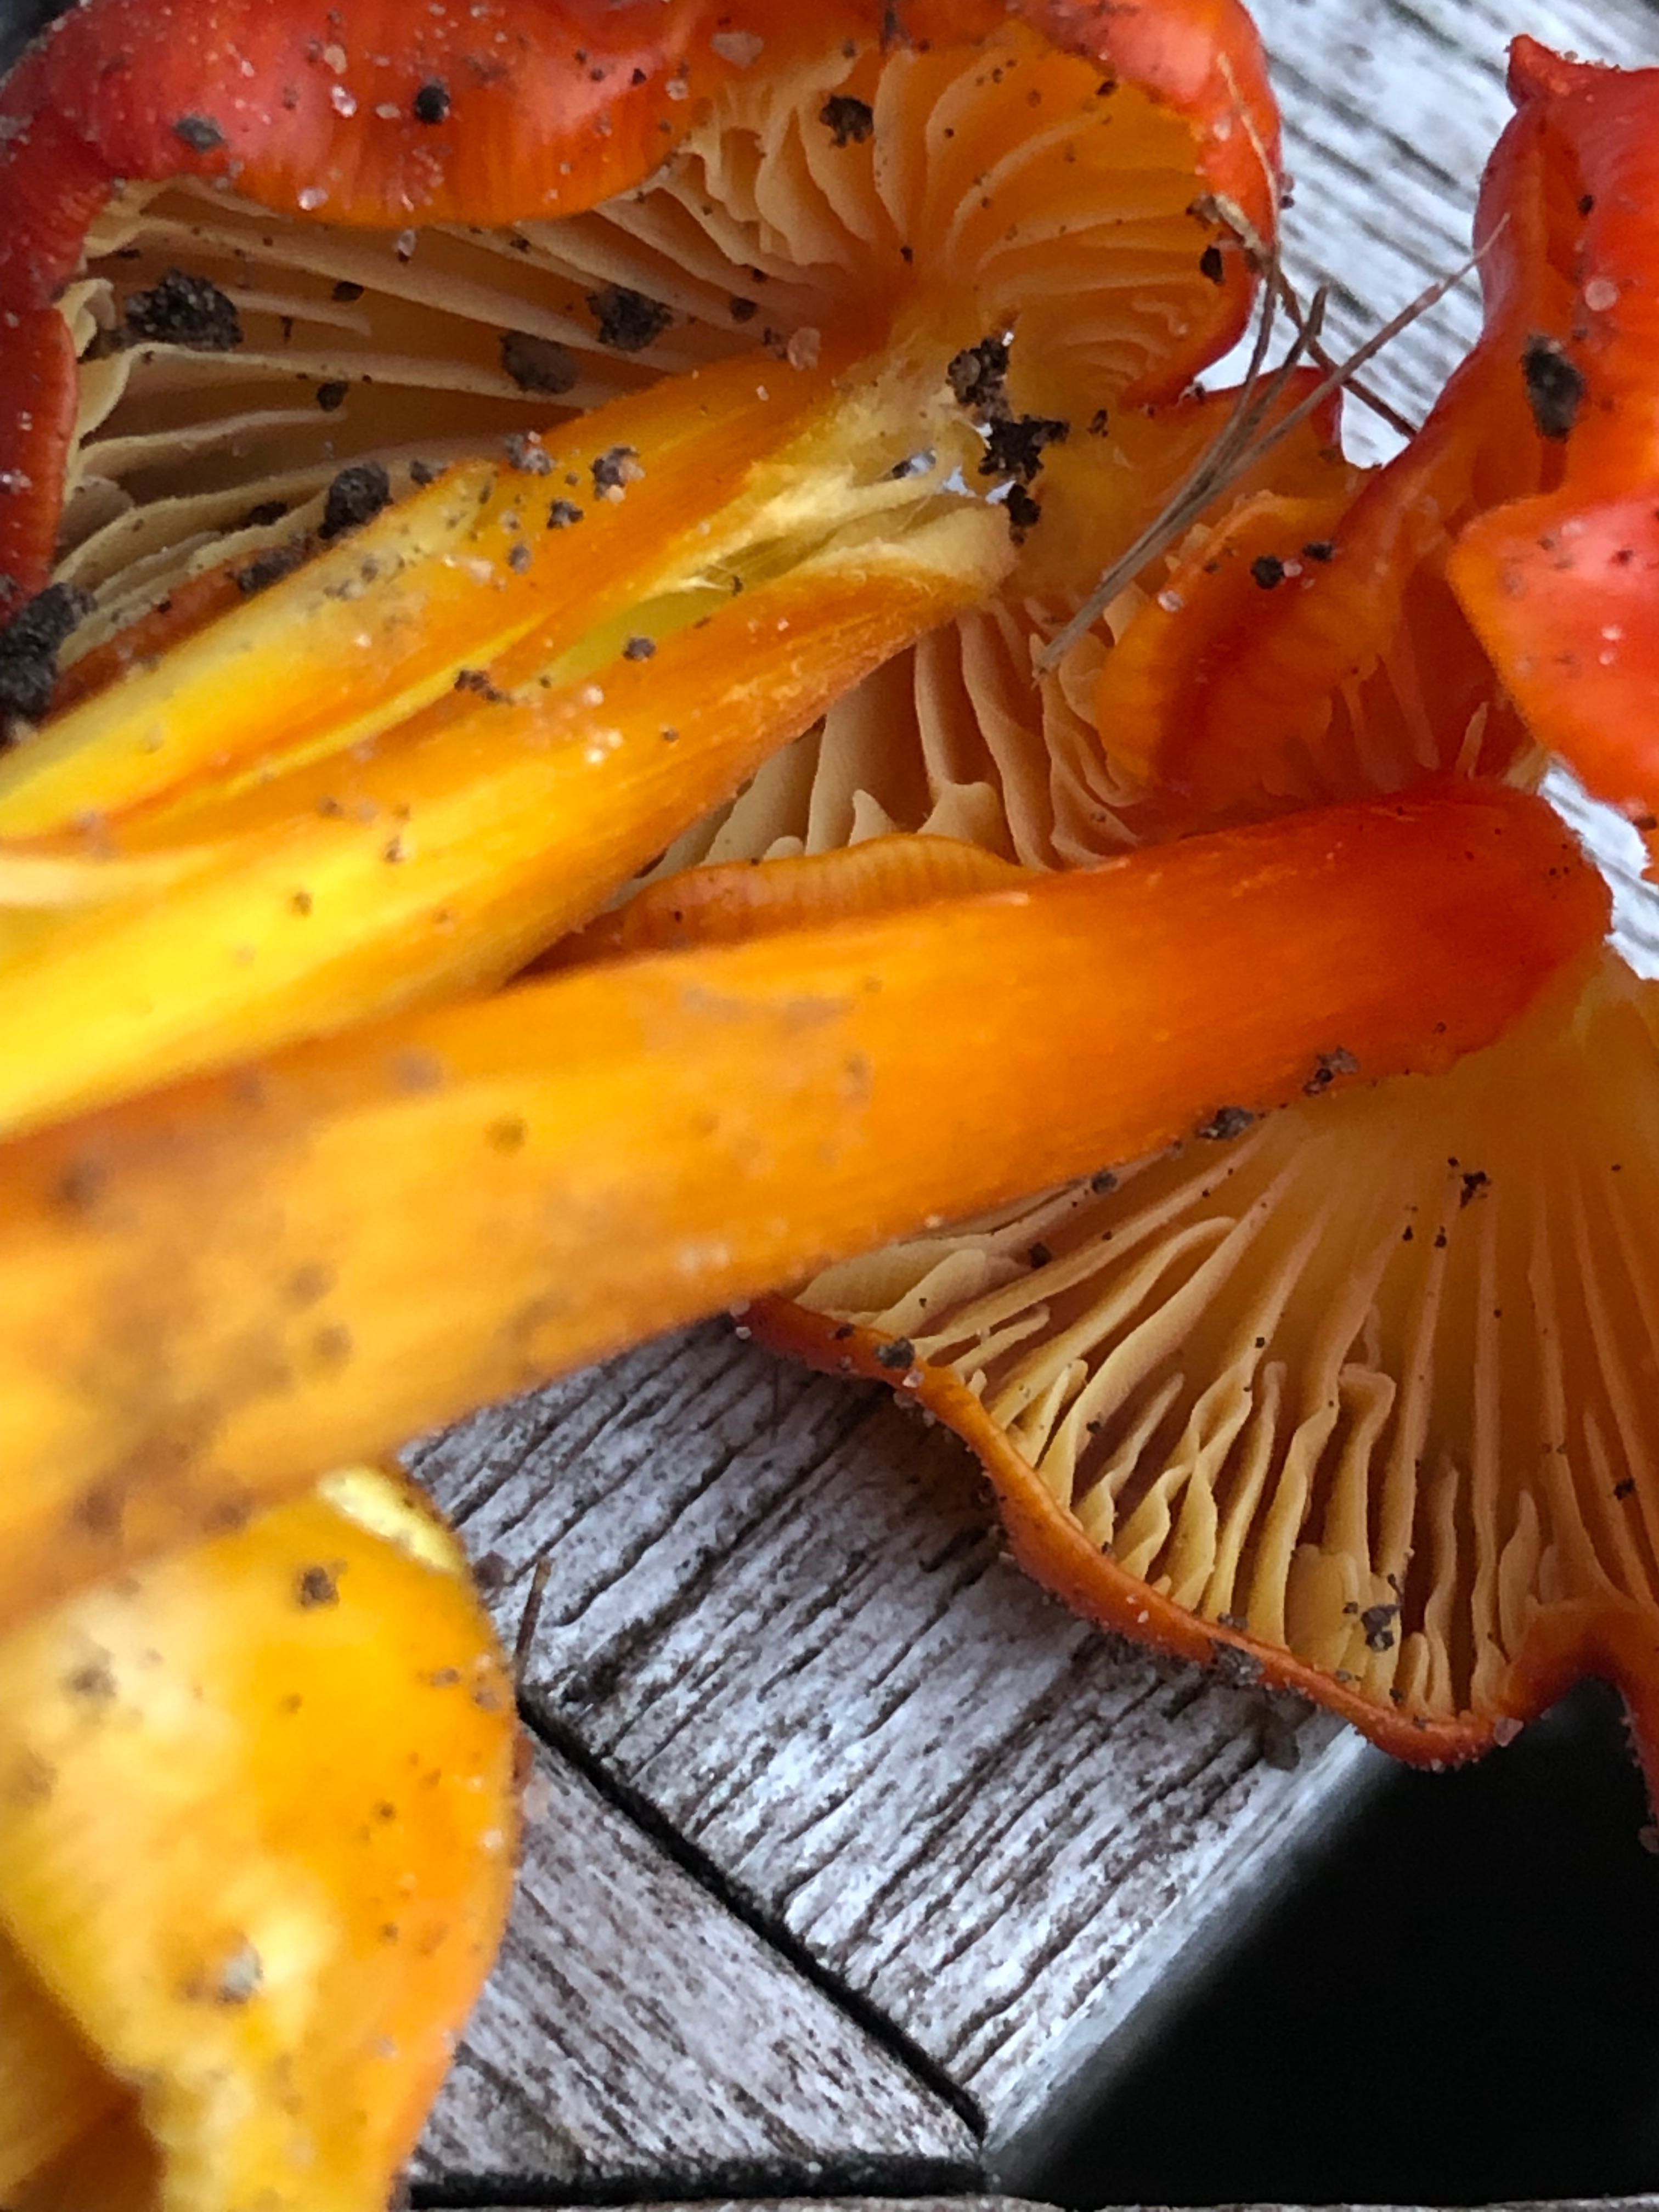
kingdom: Fungi
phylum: Basidiomycota
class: Agaricomycetes
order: Agaricales
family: Hygrophoraceae
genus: Hygrocybe
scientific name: Hygrocybe
